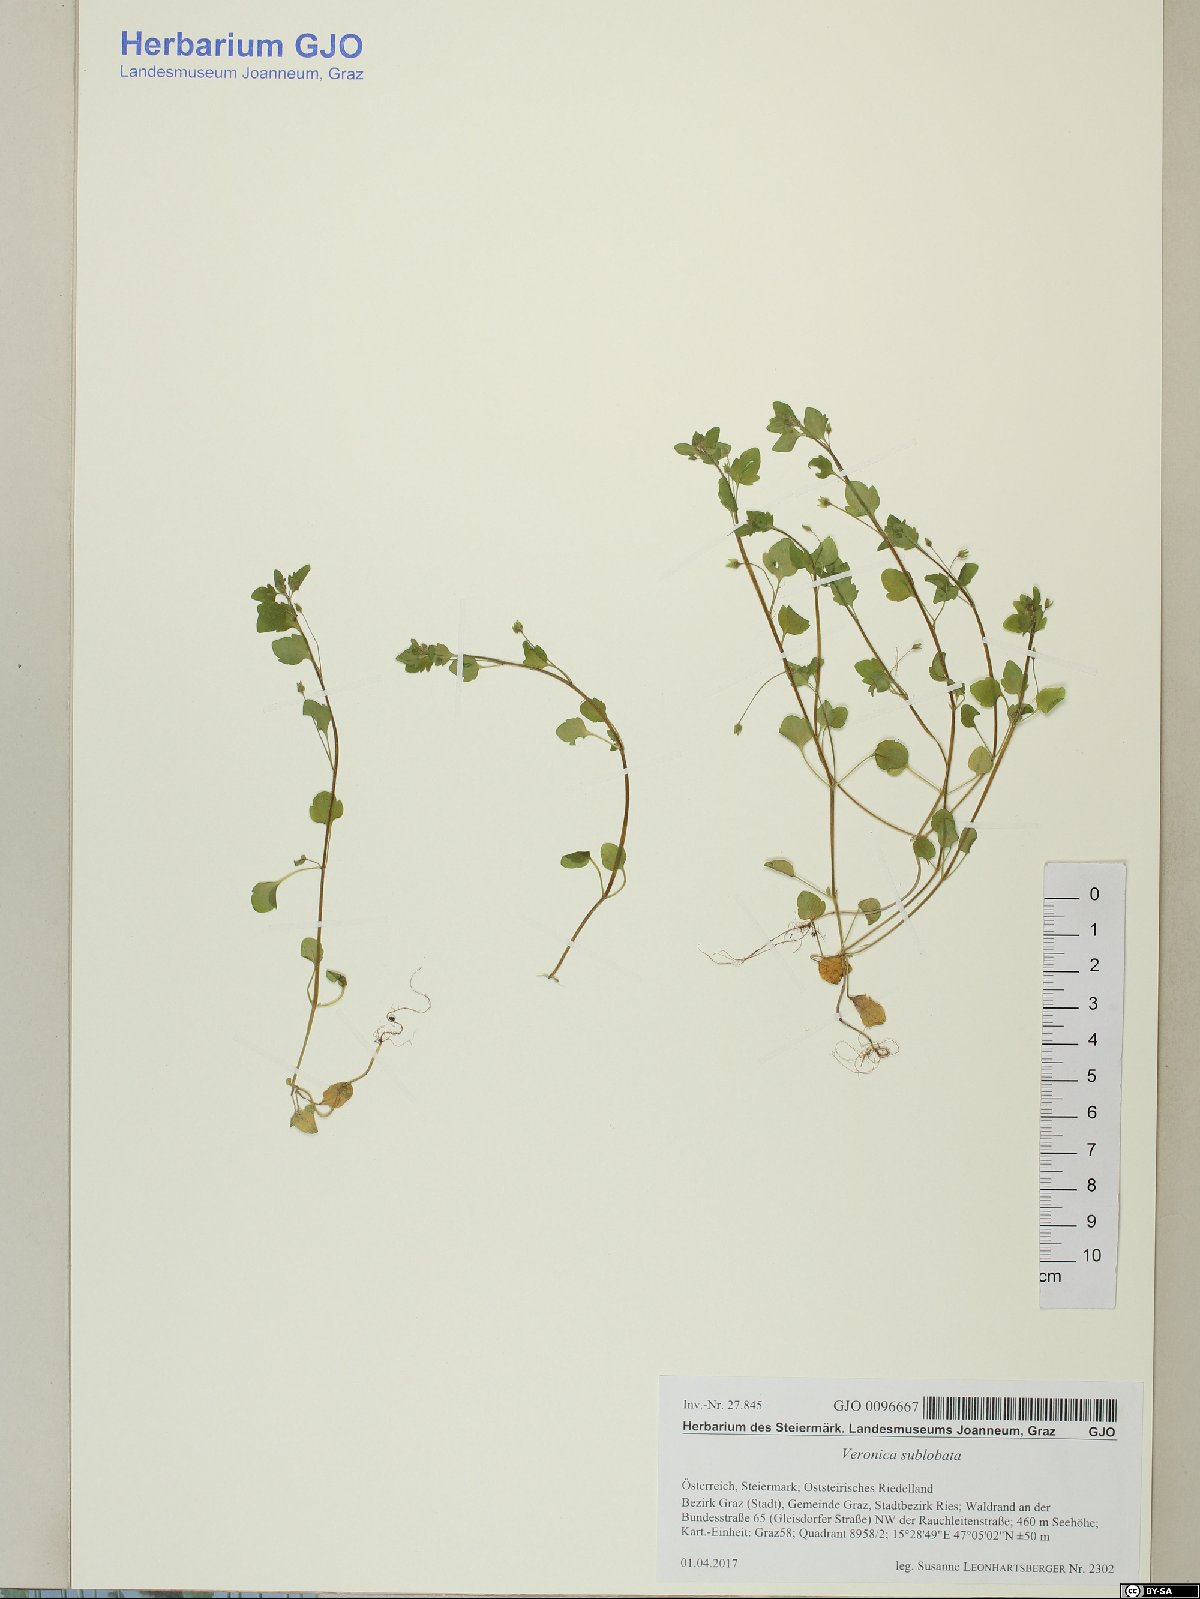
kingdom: Plantae
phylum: Tracheophyta
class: Magnoliopsida
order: Lamiales
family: Plantaginaceae
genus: Veronica
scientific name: Veronica sublobata
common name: False ivy-leaved speedwell
